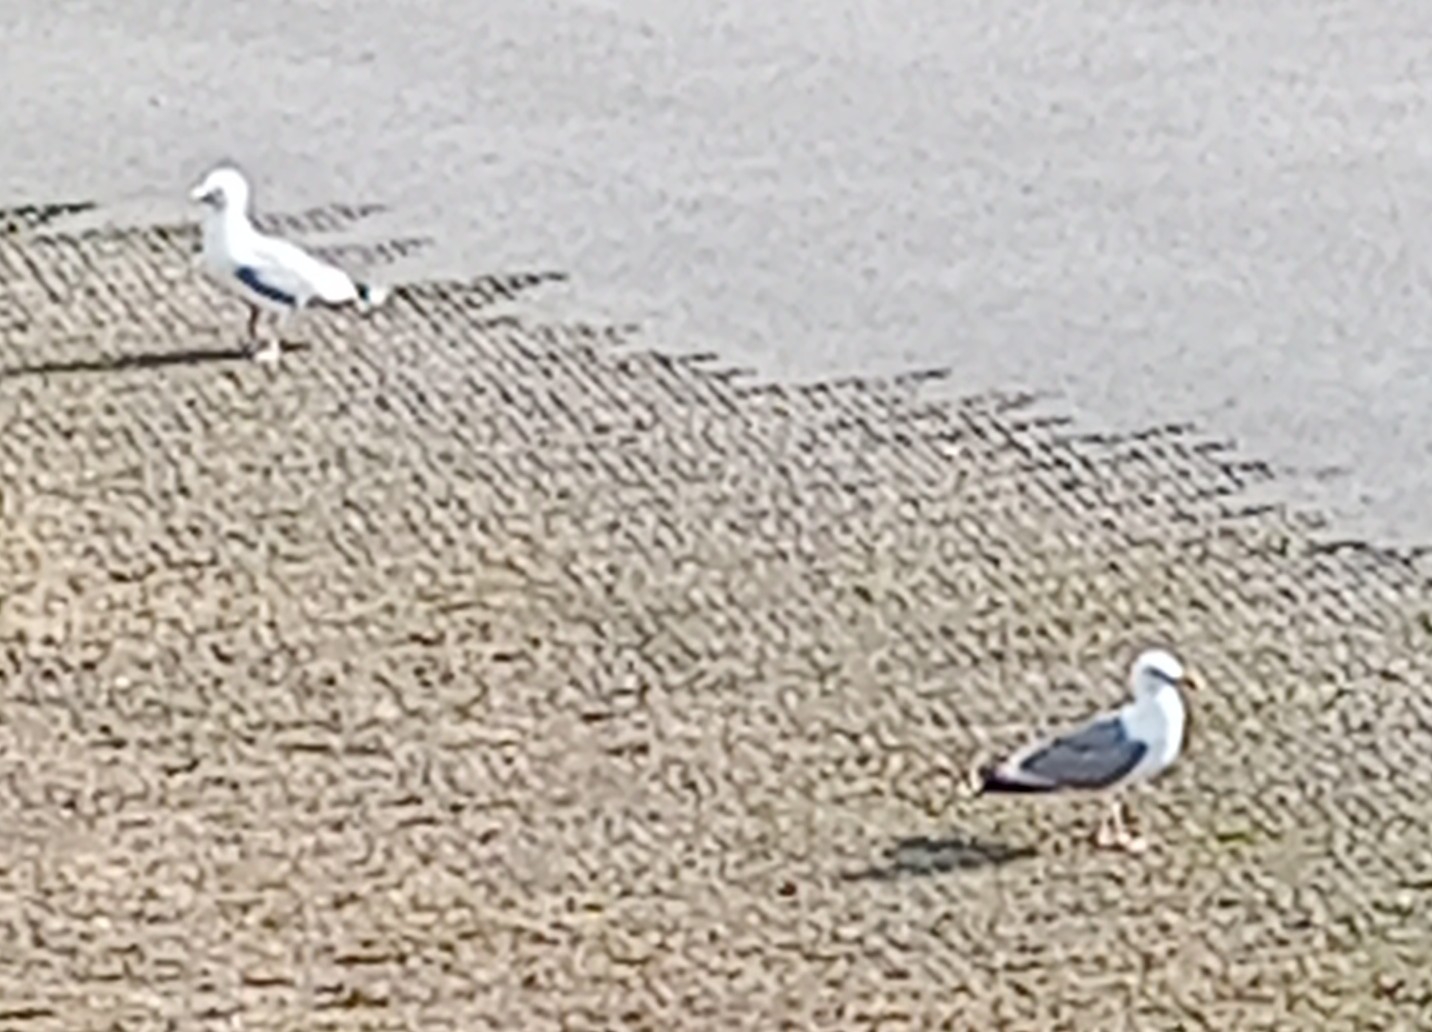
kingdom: Animalia
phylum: Chordata
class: Aves
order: Charadriiformes
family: Laridae
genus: Larus
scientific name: Larus argentatus
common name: Sølvmåge
